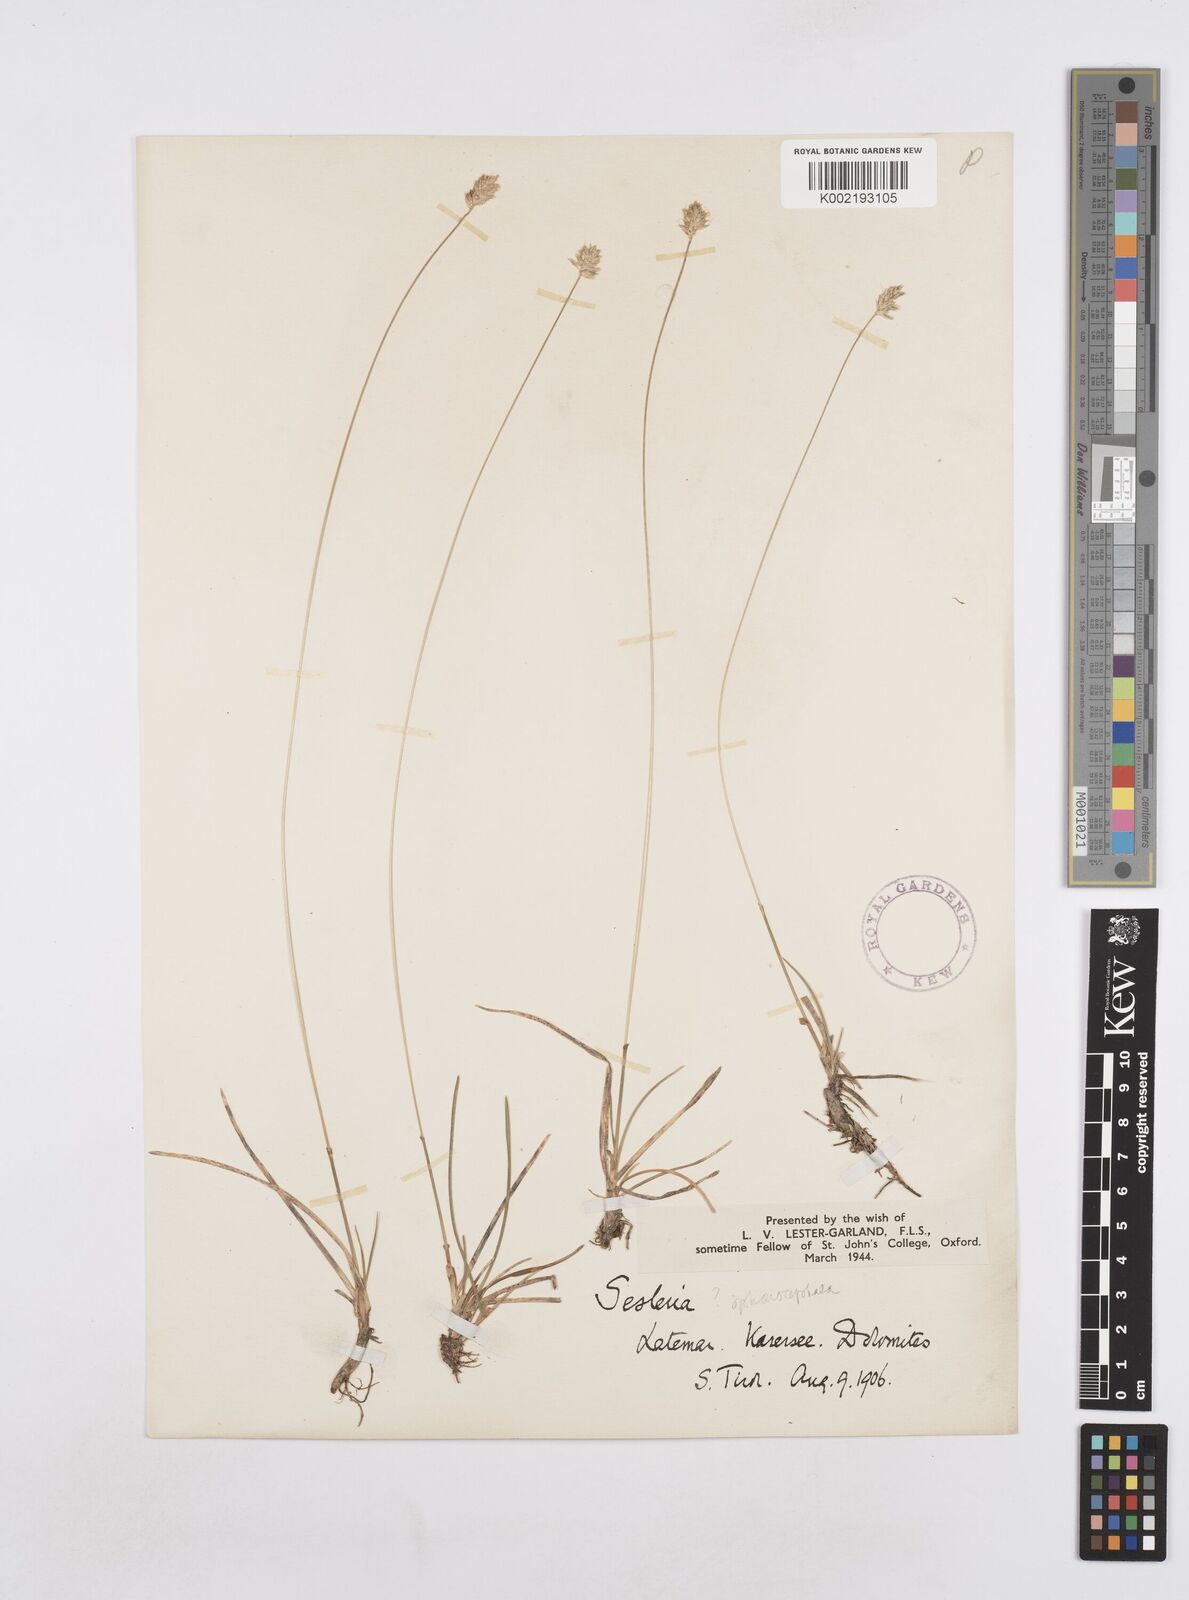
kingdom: Plantae
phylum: Tracheophyta
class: Liliopsida
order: Poales
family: Poaceae
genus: Sesleria
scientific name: Sesleria
